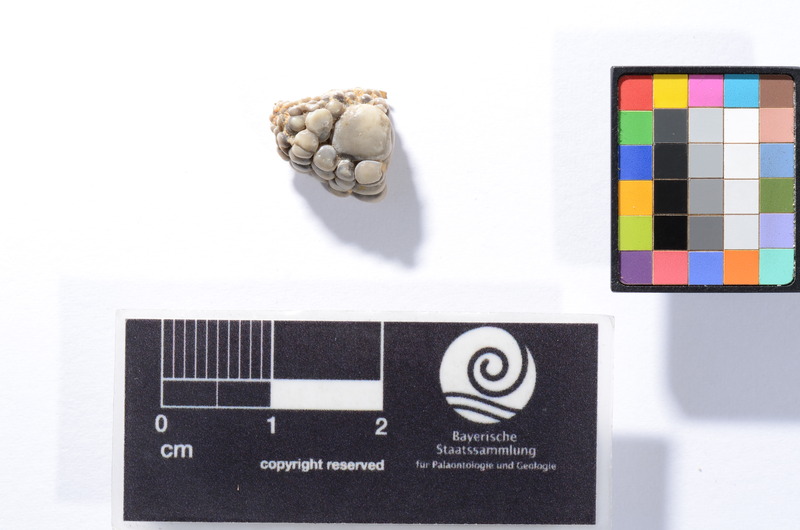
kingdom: Animalia
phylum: Chordata
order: Perciformes
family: Labridae
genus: Labrodon
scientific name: Labrodon multidens
